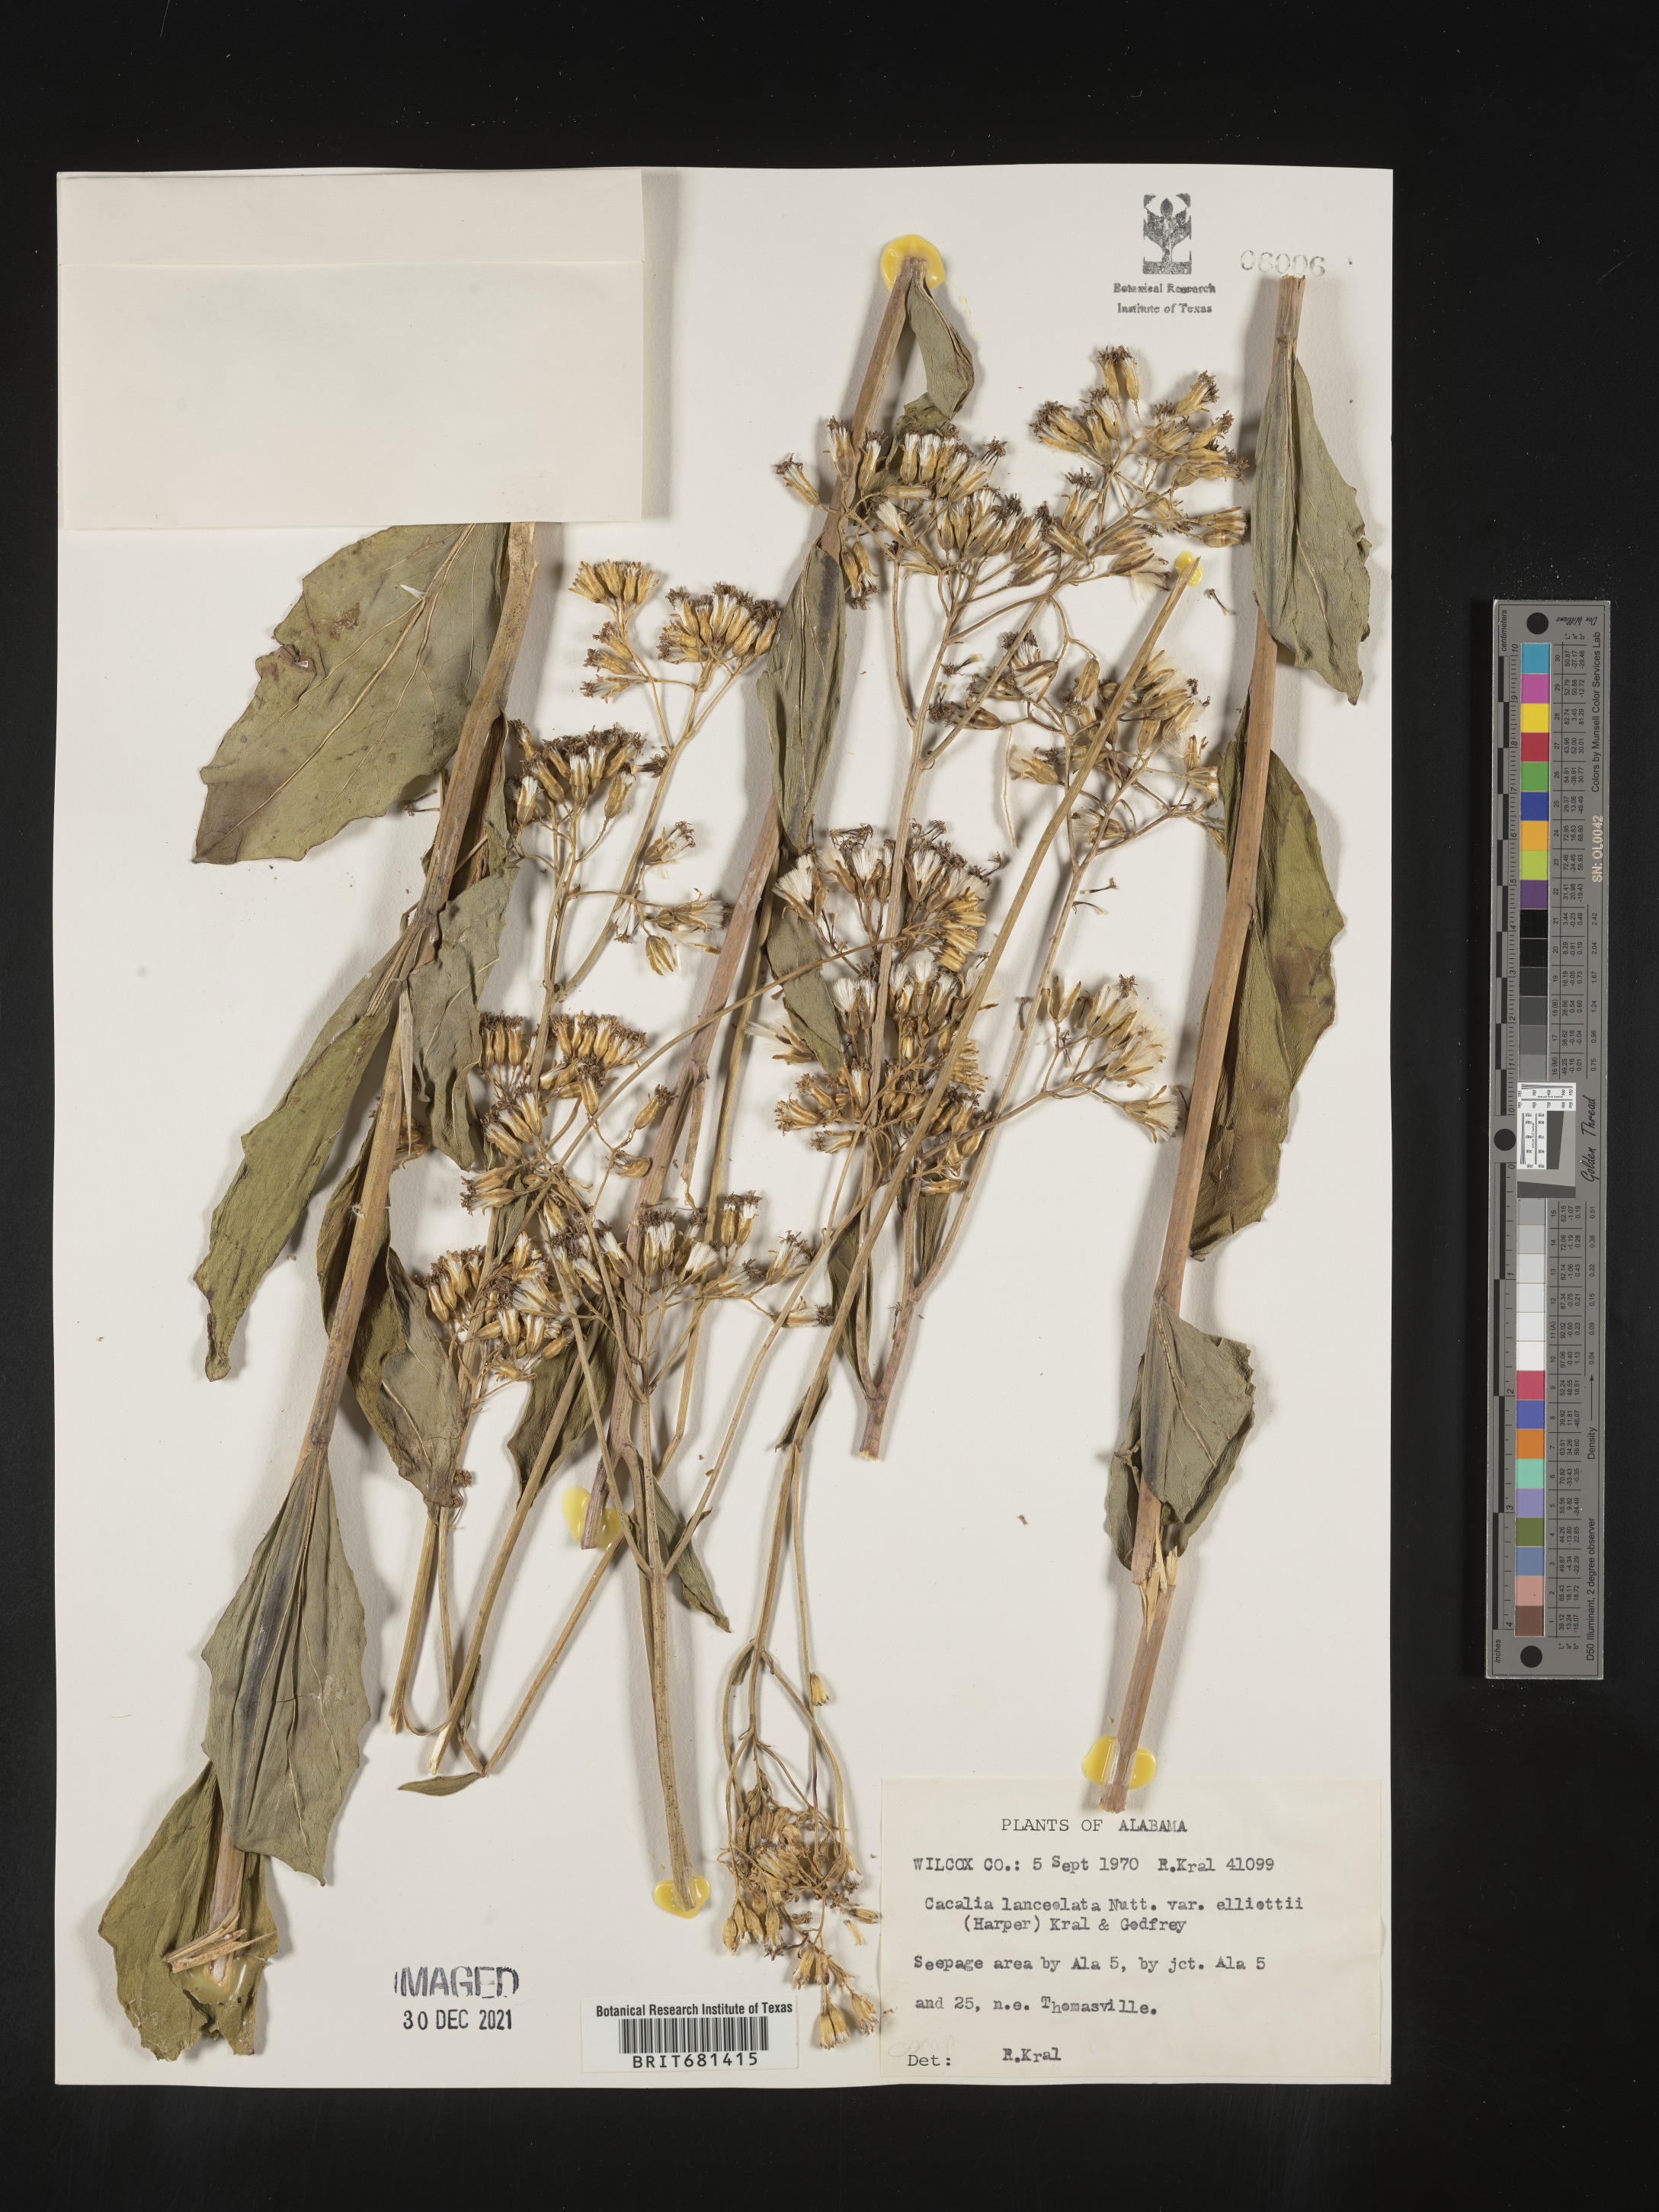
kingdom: Plantae
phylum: Tracheophyta
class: Magnoliopsida
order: Asterales
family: Asteraceae
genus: Arnoglossum
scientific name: Arnoglossum ovatum
